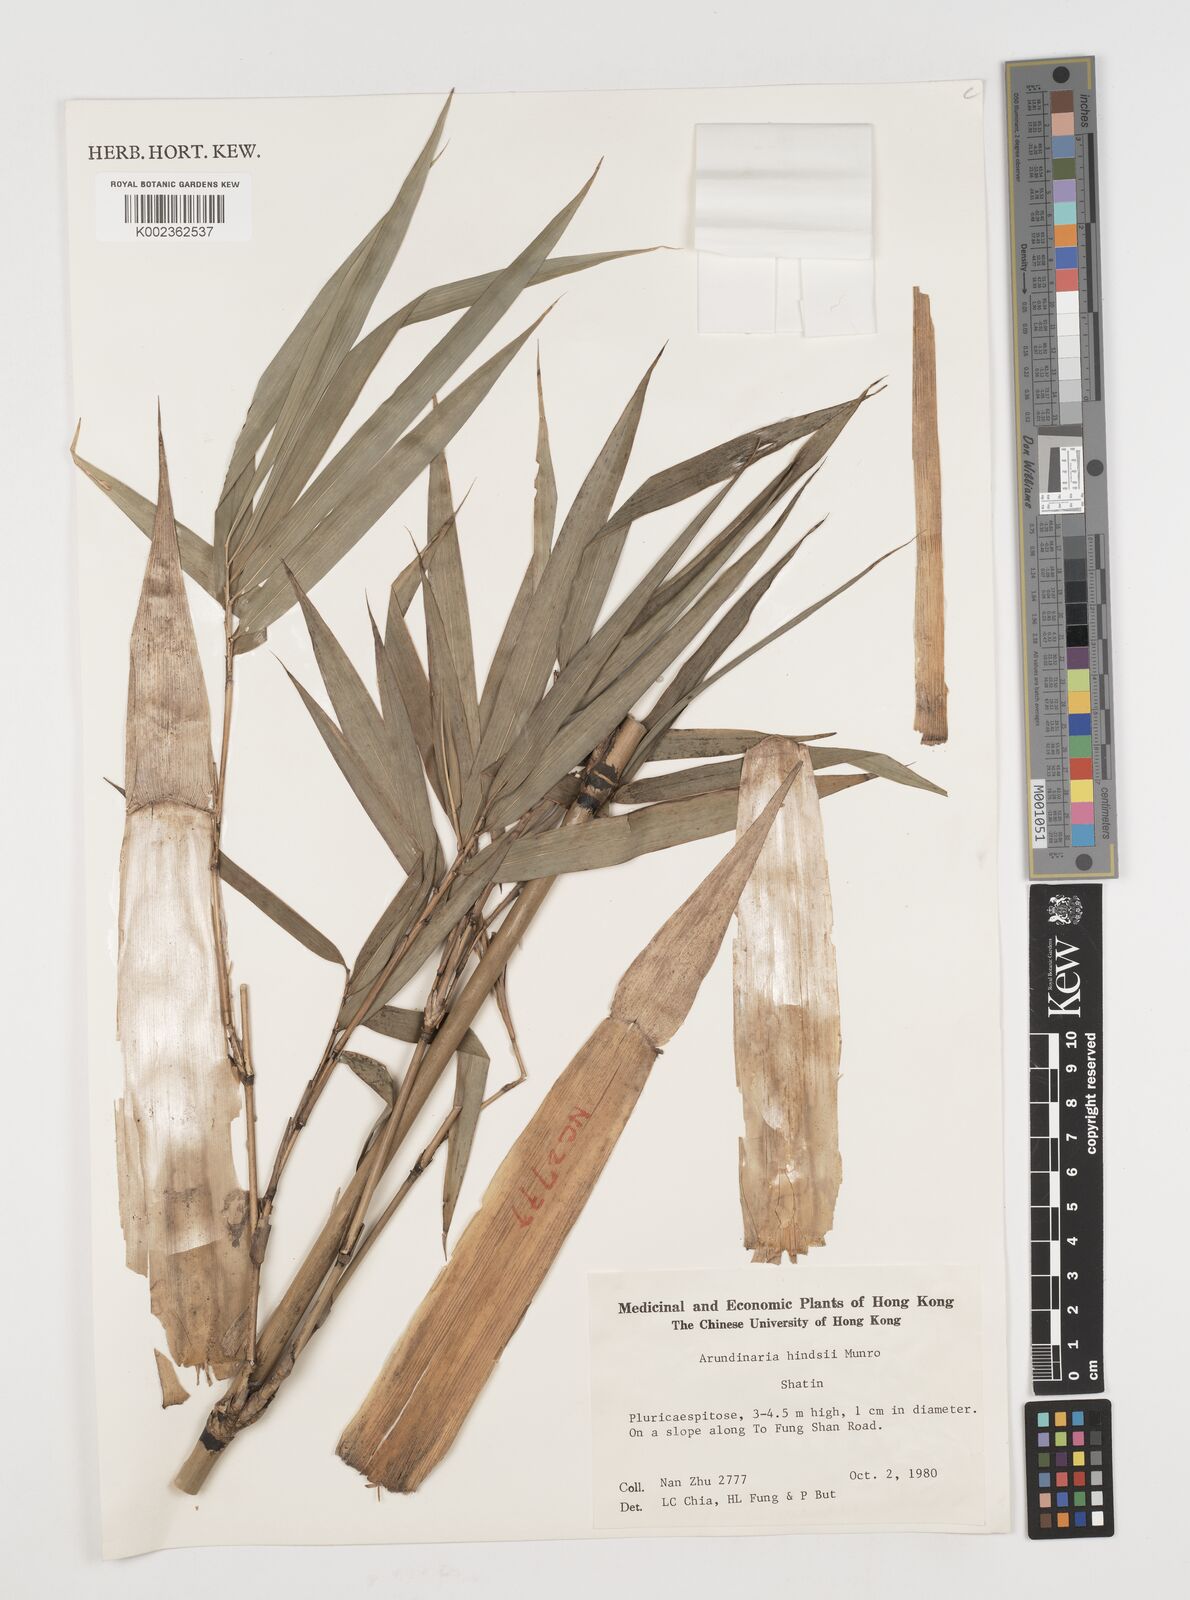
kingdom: Plantae
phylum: Tracheophyta
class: Liliopsida
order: Poales
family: Poaceae
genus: Pseudosasa
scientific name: Pseudosasa hindsii
